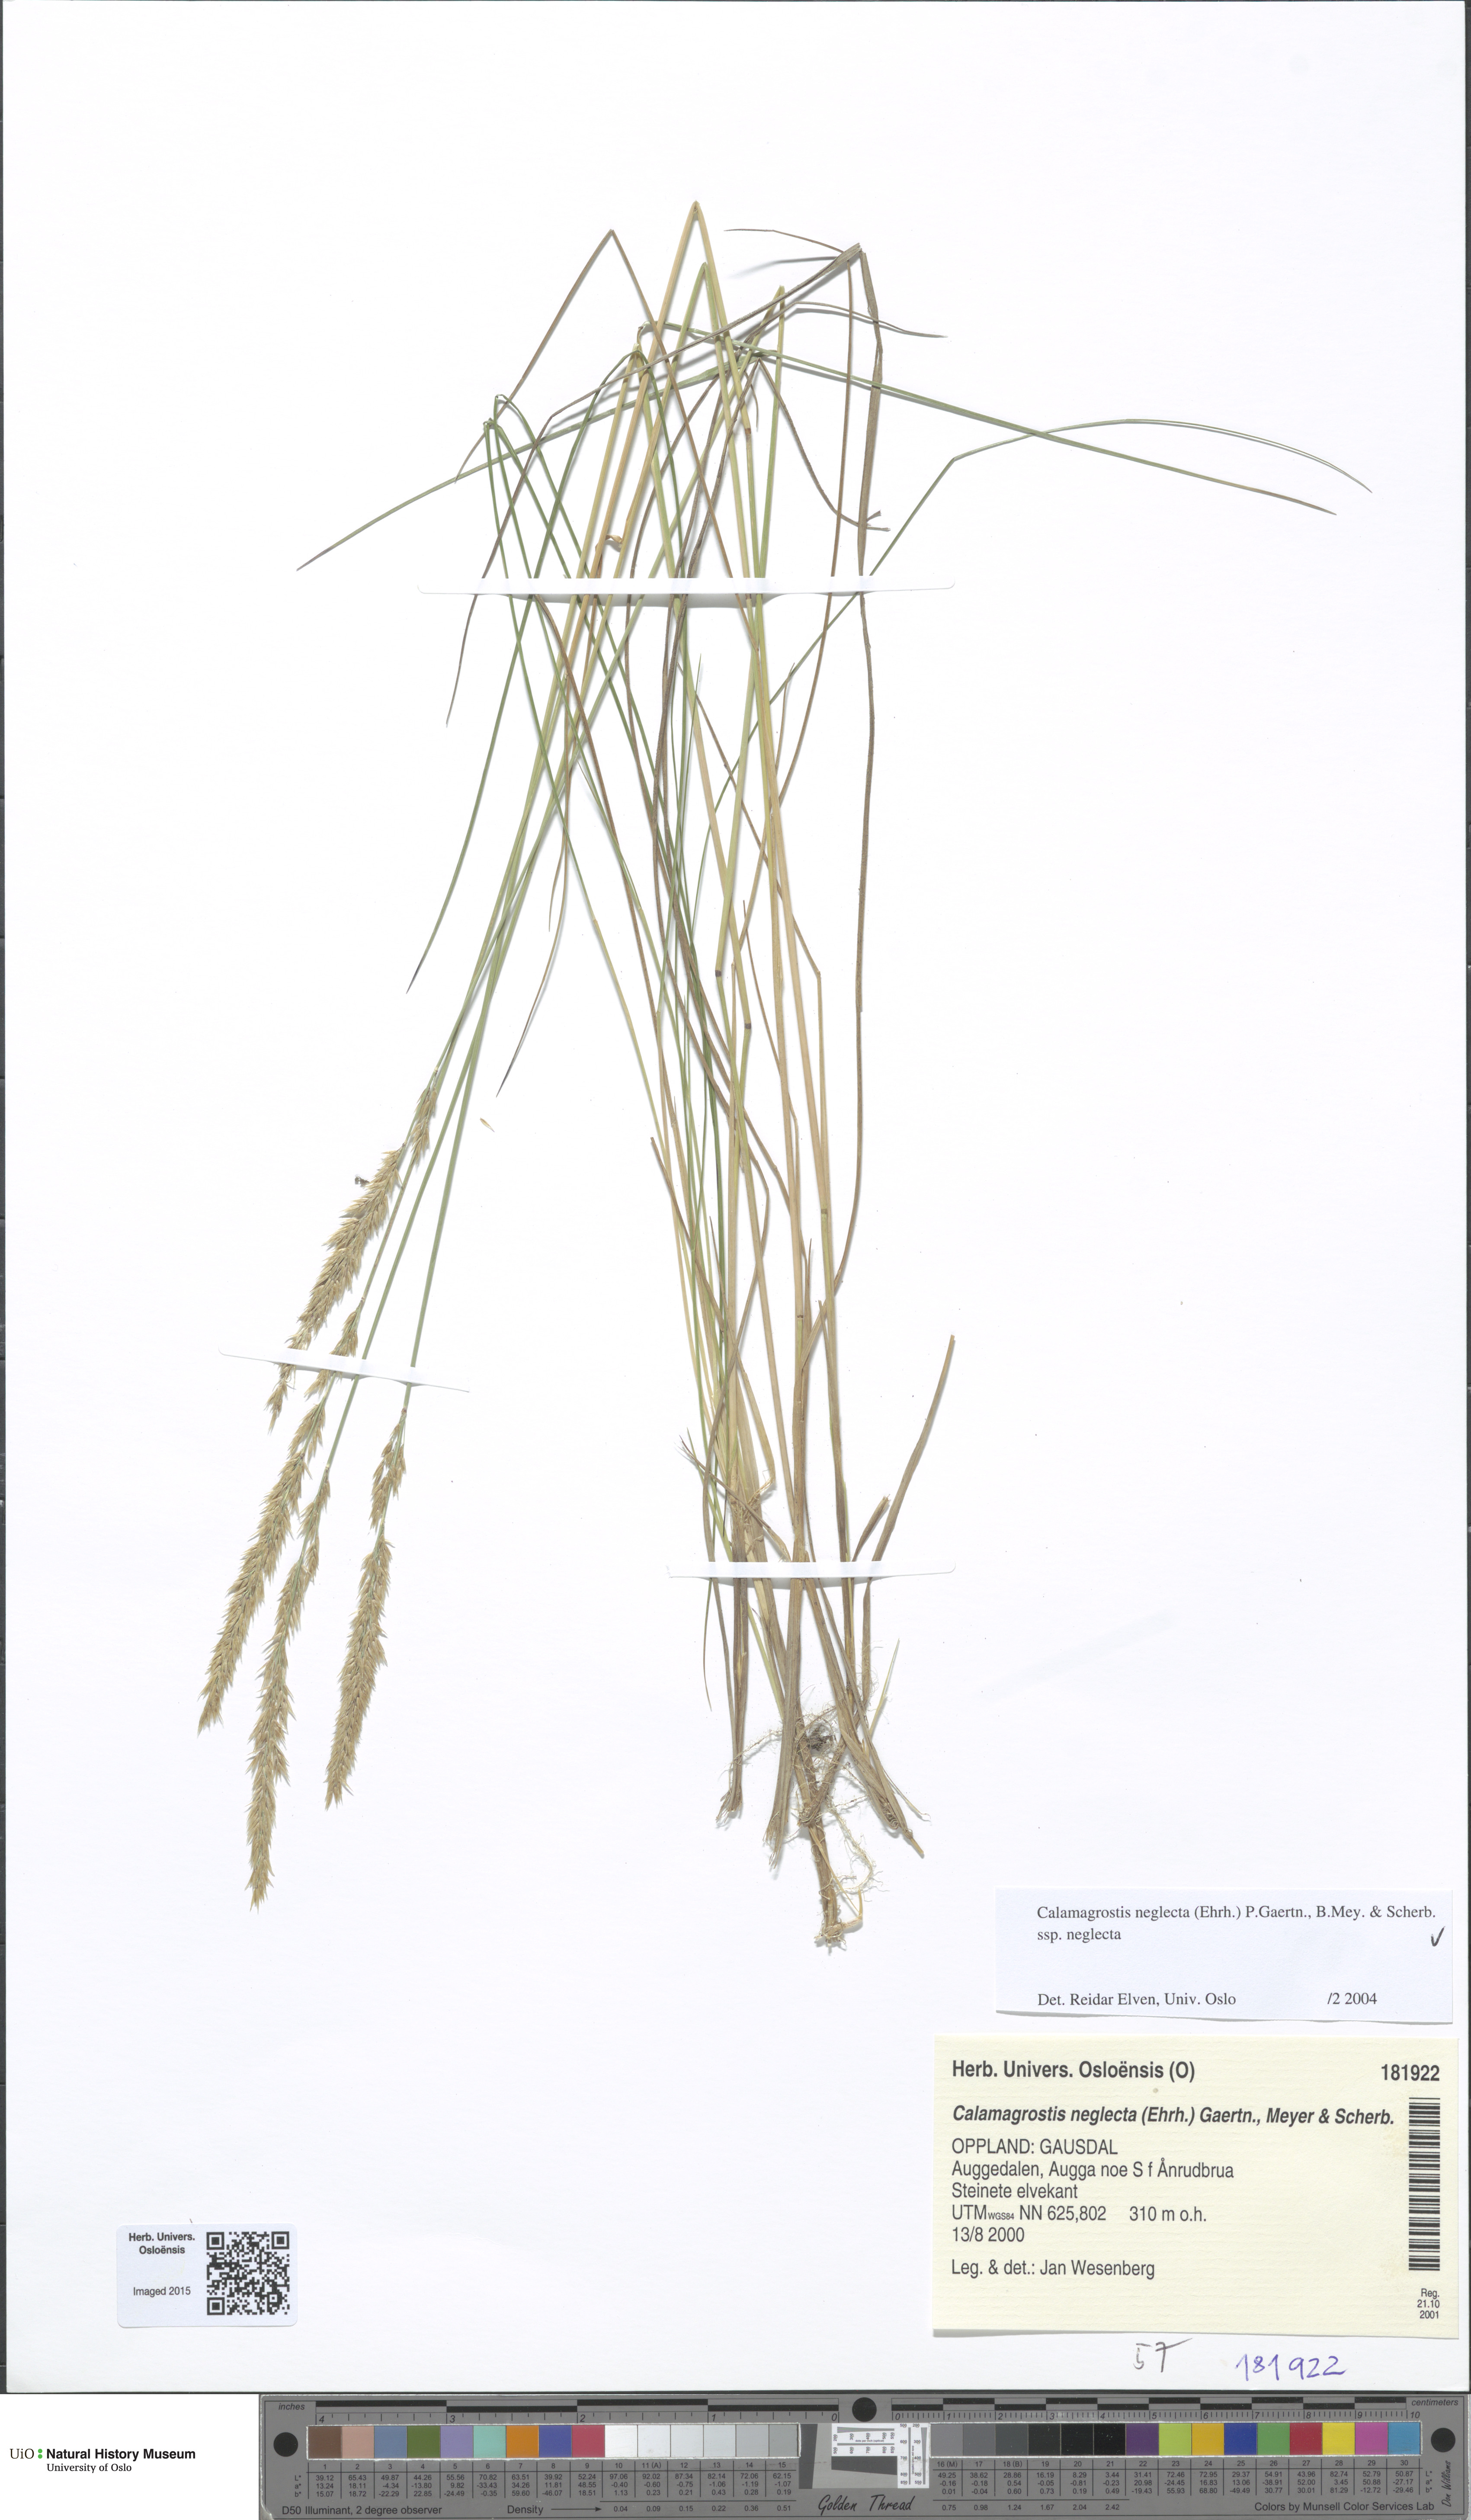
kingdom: Plantae
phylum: Tracheophyta
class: Liliopsida
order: Poales
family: Poaceae
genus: Achnatherum
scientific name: Achnatherum calamagrostis
